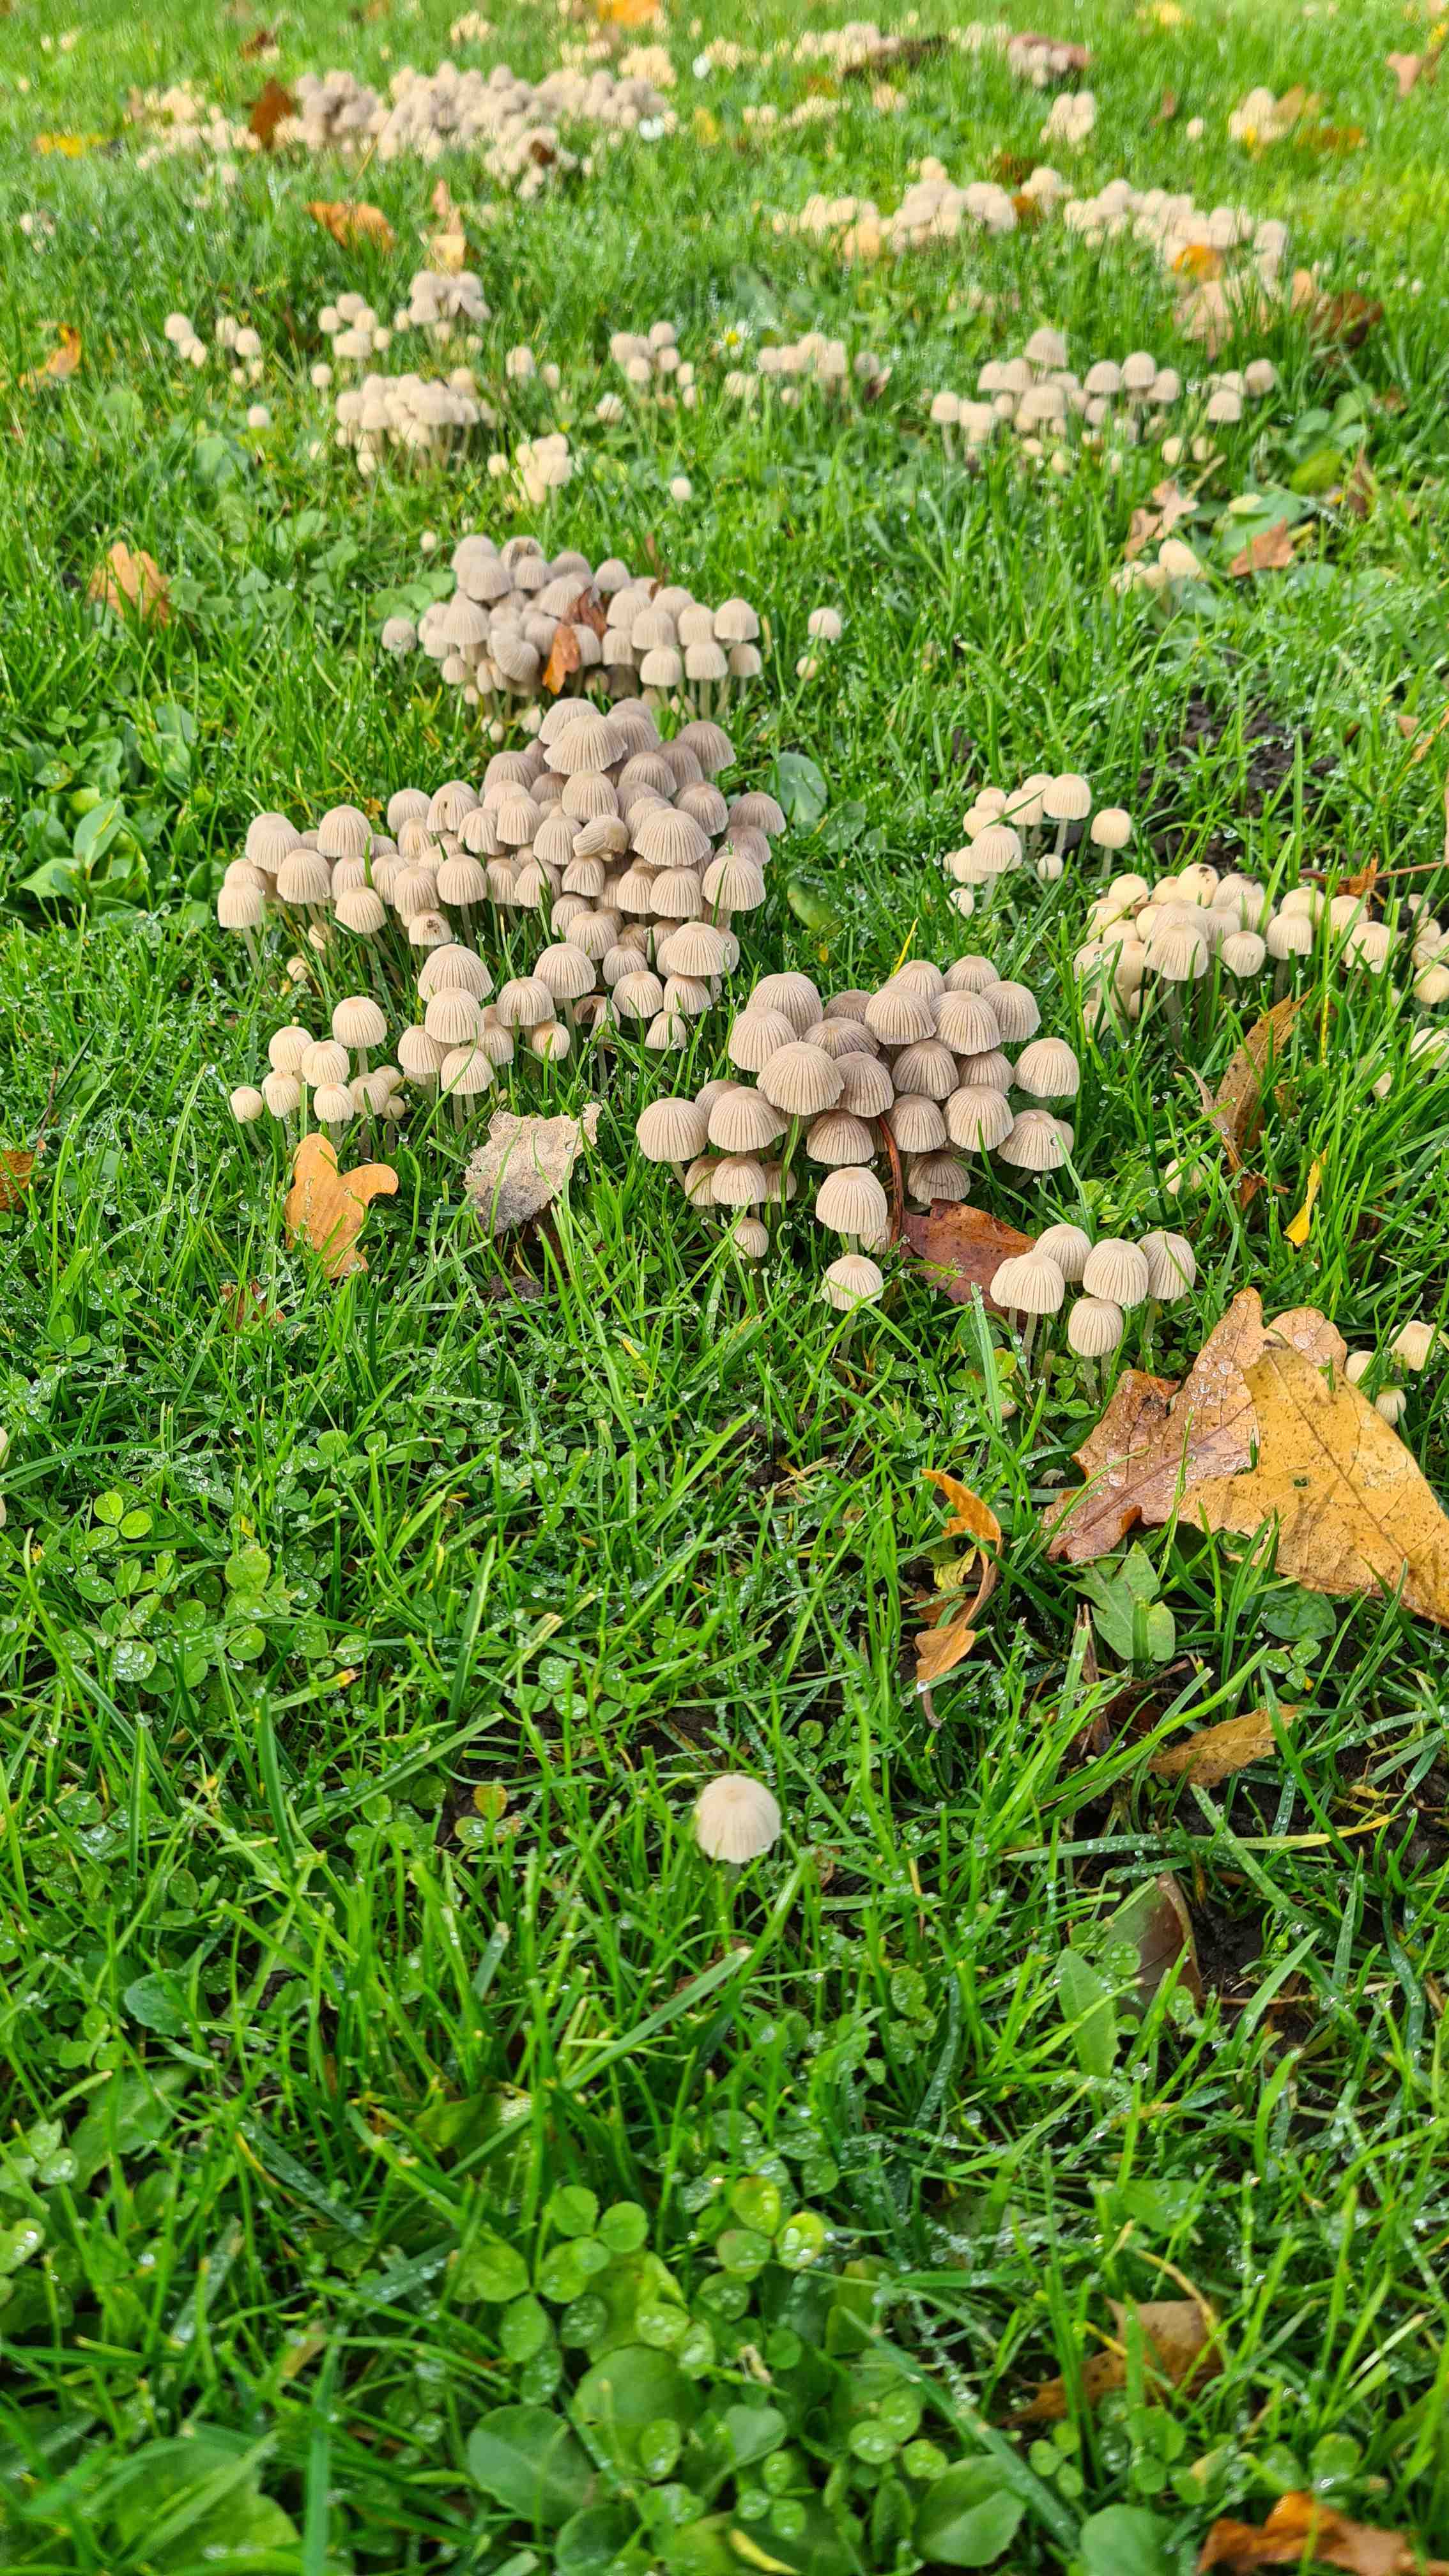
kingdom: Fungi
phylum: Basidiomycota
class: Agaricomycetes
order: Agaricales
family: Psathyrellaceae
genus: Coprinellus
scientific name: Coprinellus disseminatus
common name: bredsået blækhat
